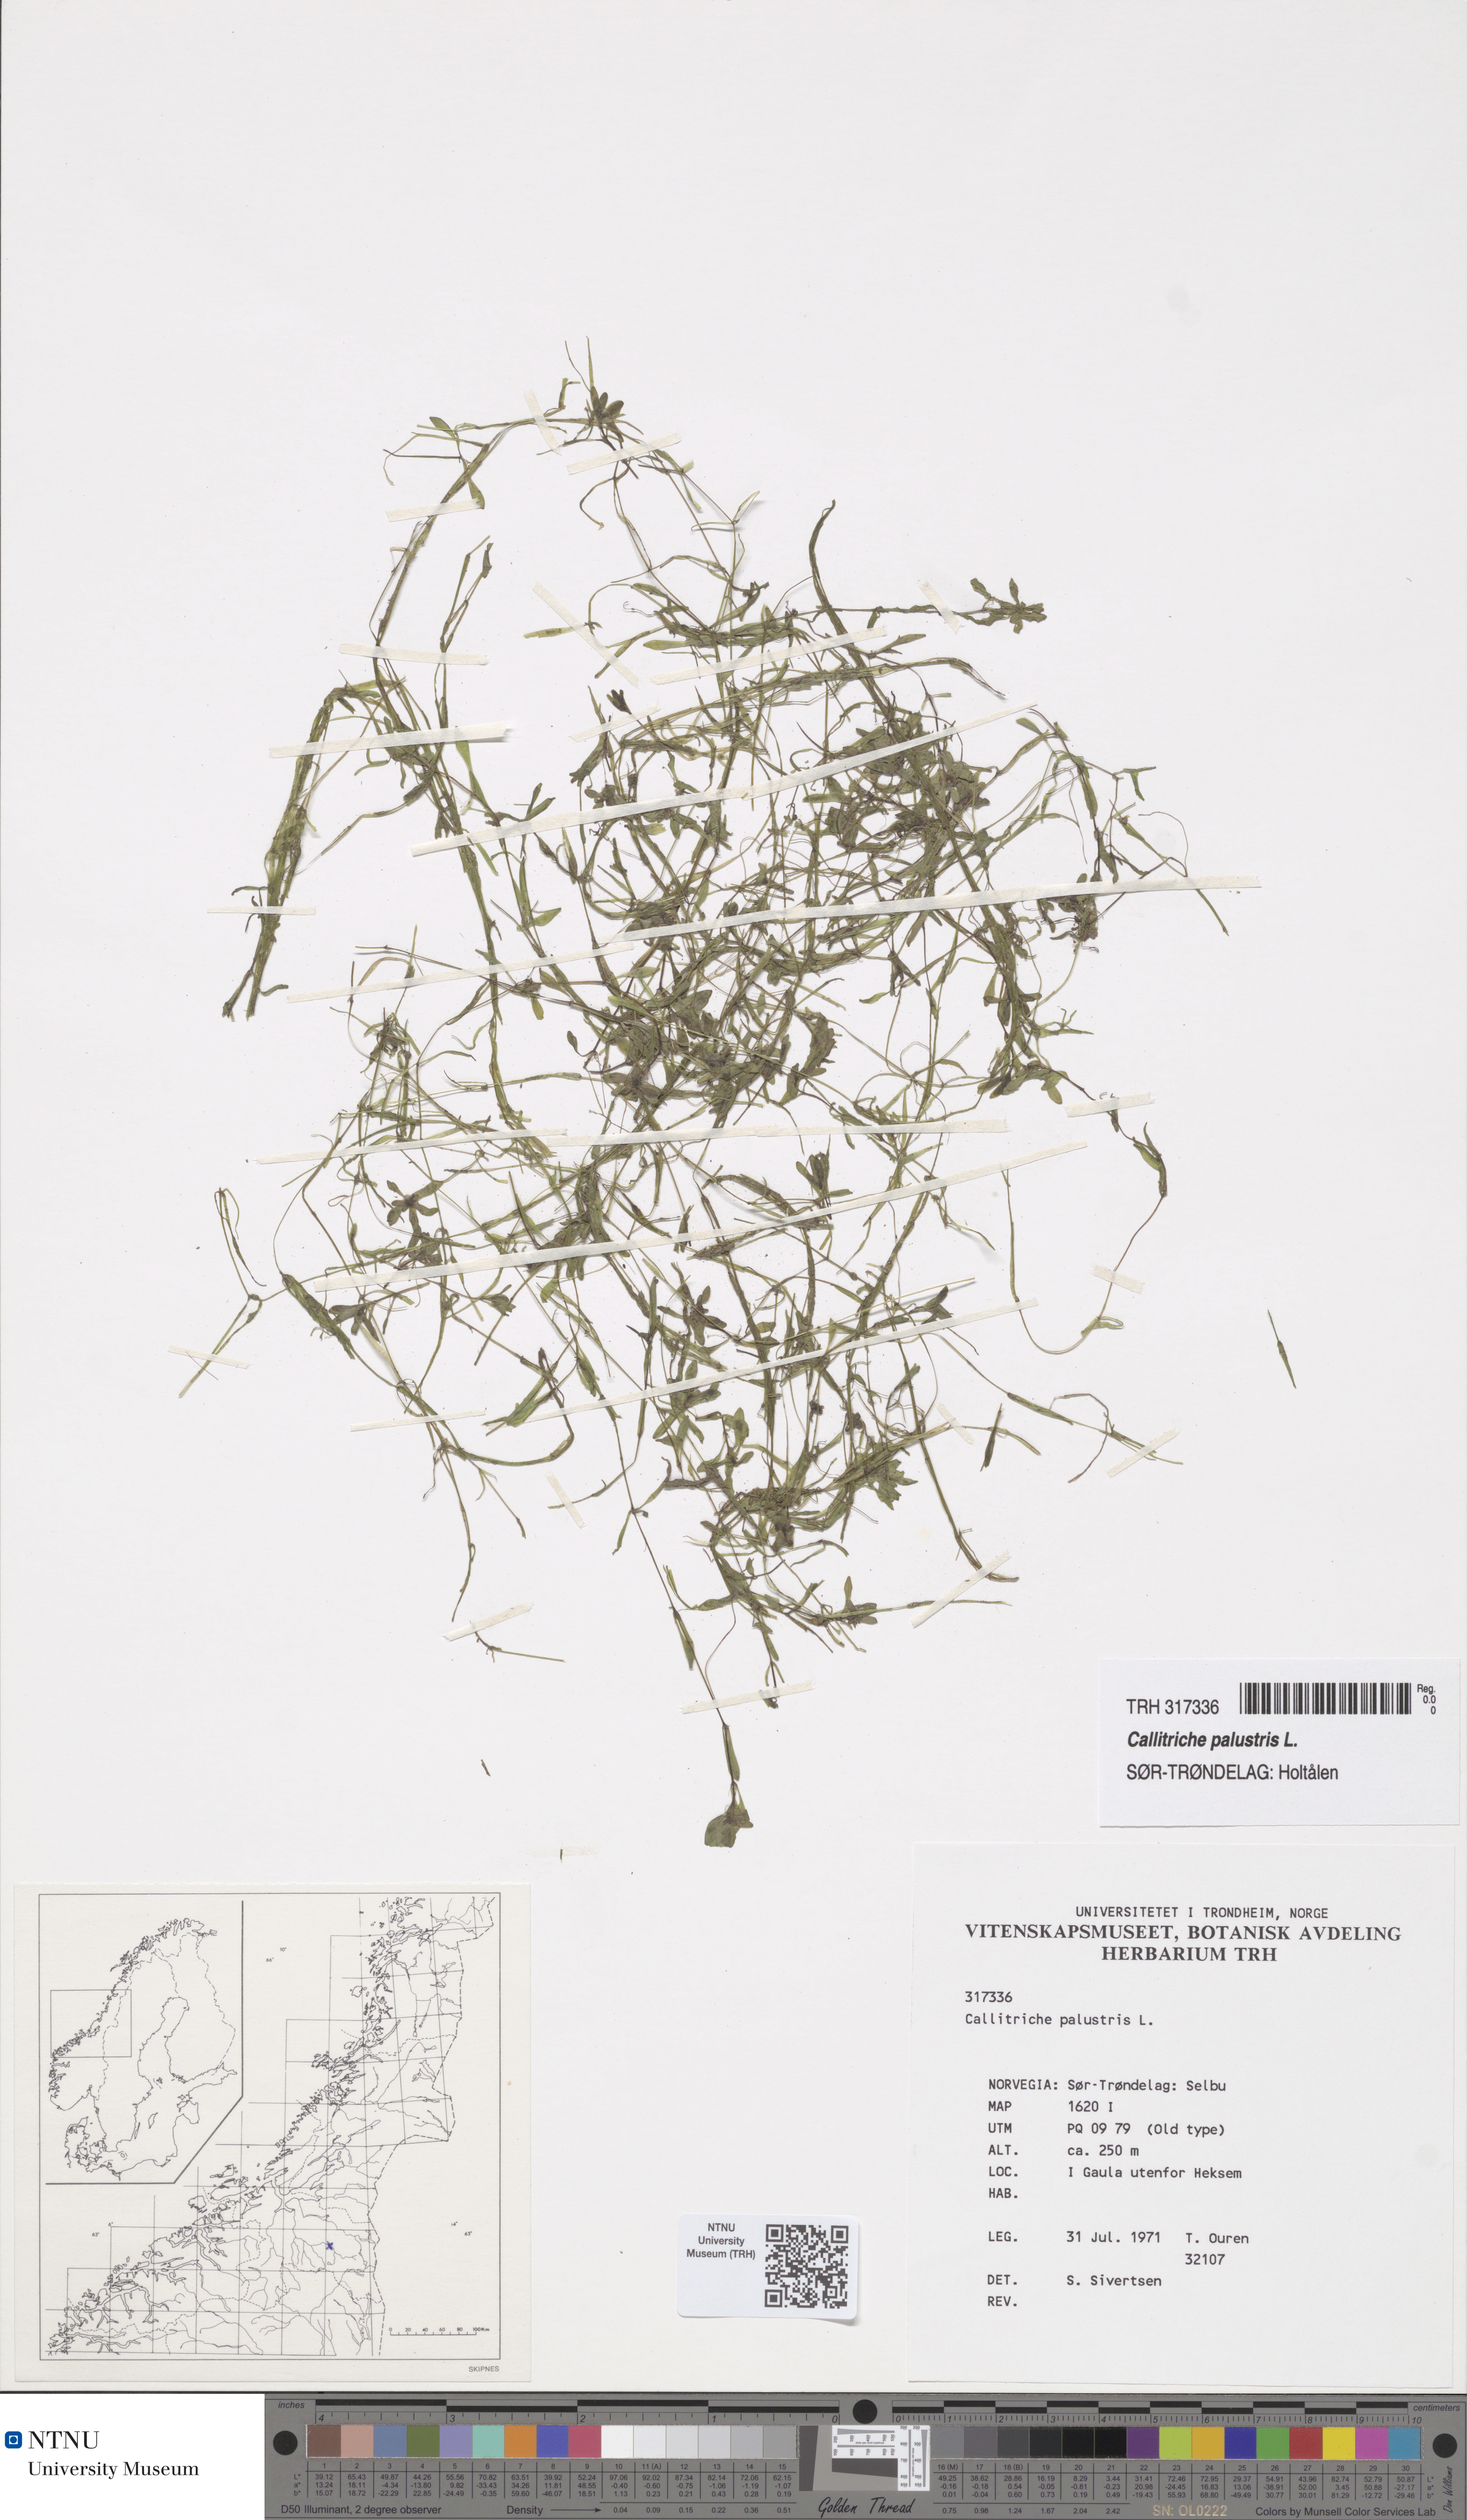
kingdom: Plantae
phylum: Tracheophyta
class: Magnoliopsida
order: Lamiales
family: Plantaginaceae
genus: Callitriche
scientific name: Callitriche palustris
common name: Spring water-starwort
